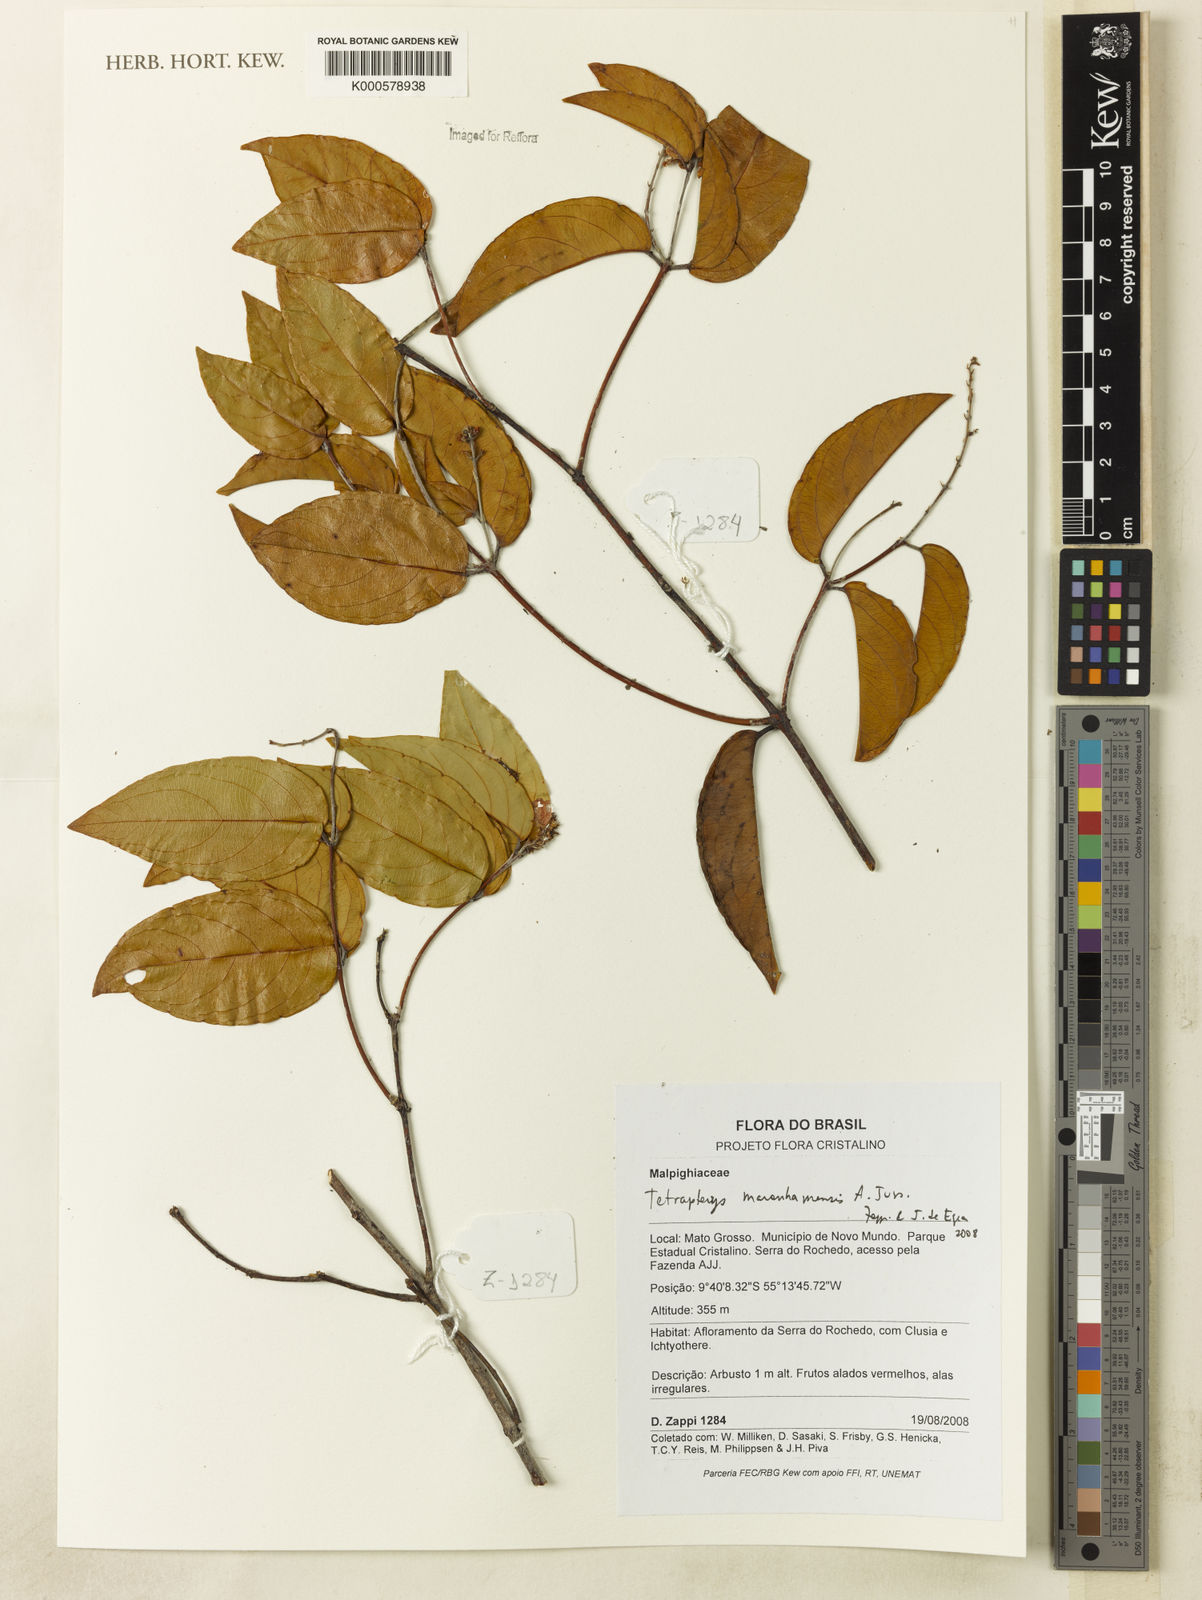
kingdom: Plantae
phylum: Tracheophyta
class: Magnoliopsida
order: Malpighiales
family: Malpighiaceae
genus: Glicophyllum
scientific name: Glicophyllum maranhamense
